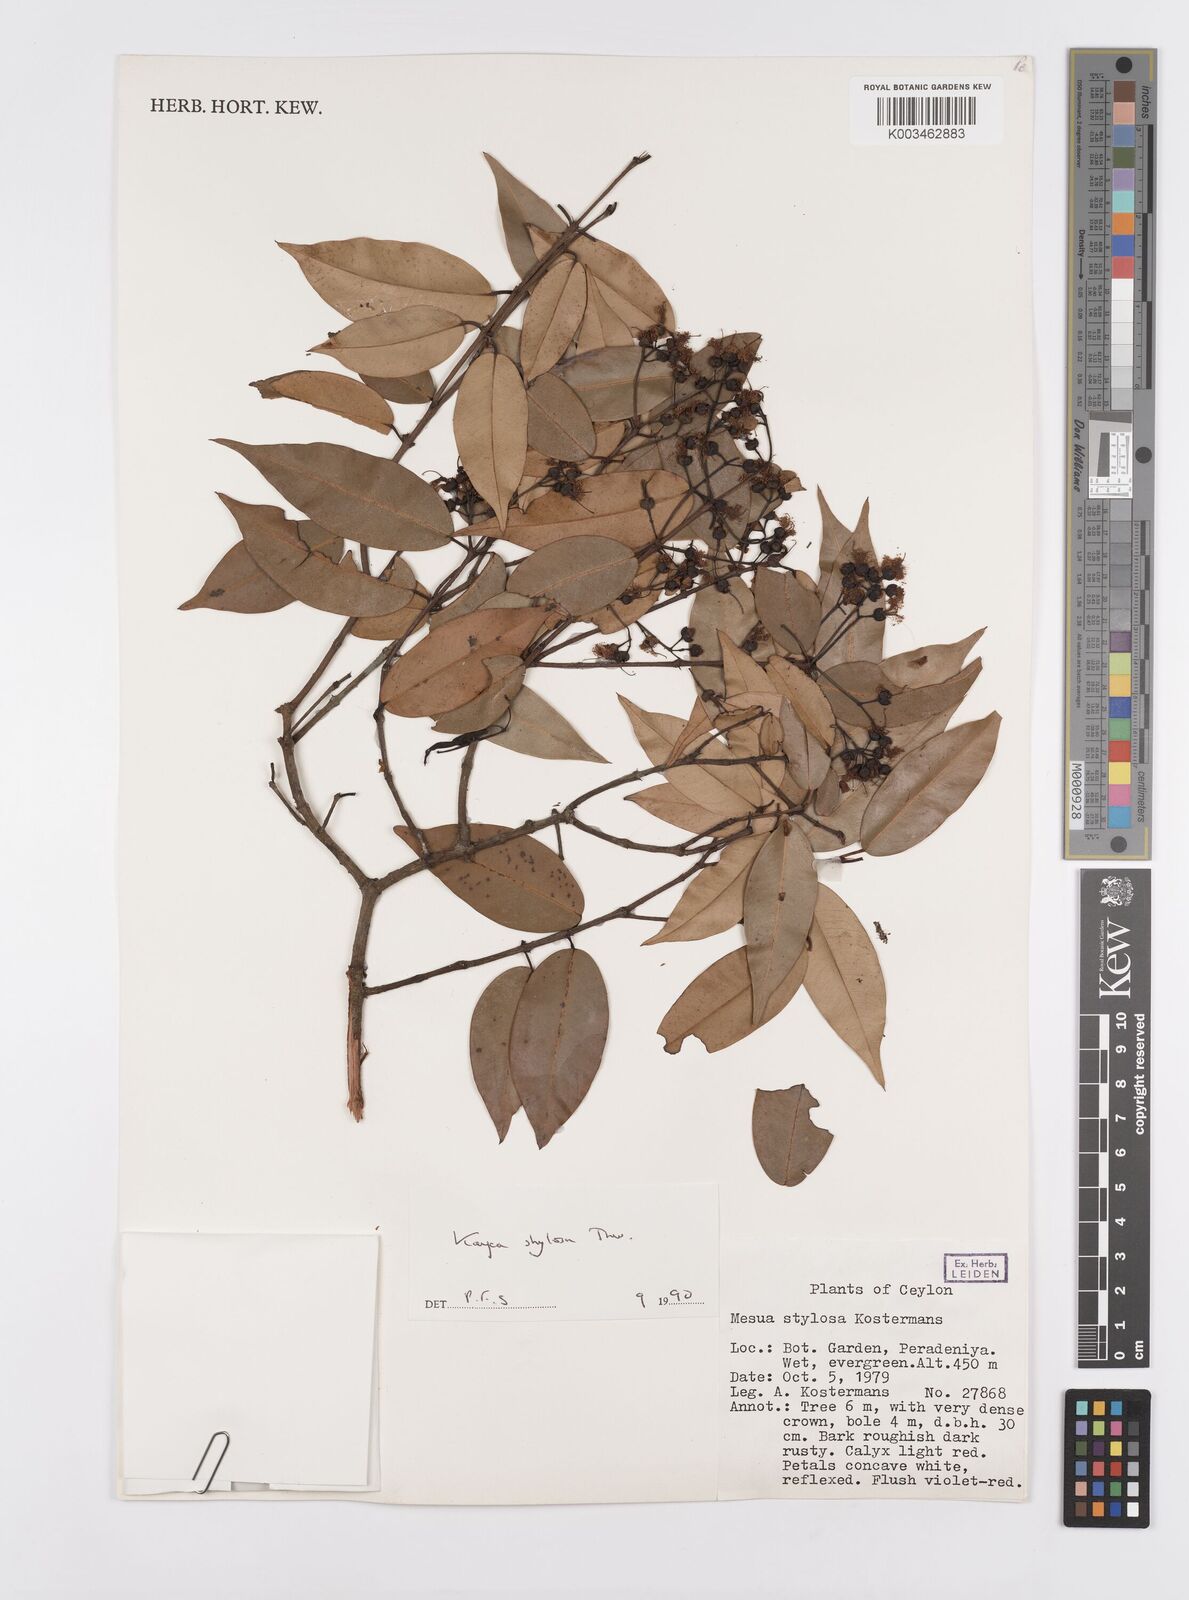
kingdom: Plantae
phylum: Tracheophyta
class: Magnoliopsida
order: Malpighiales
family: Calophyllaceae
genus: Kayea
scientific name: Kayea stylosa
